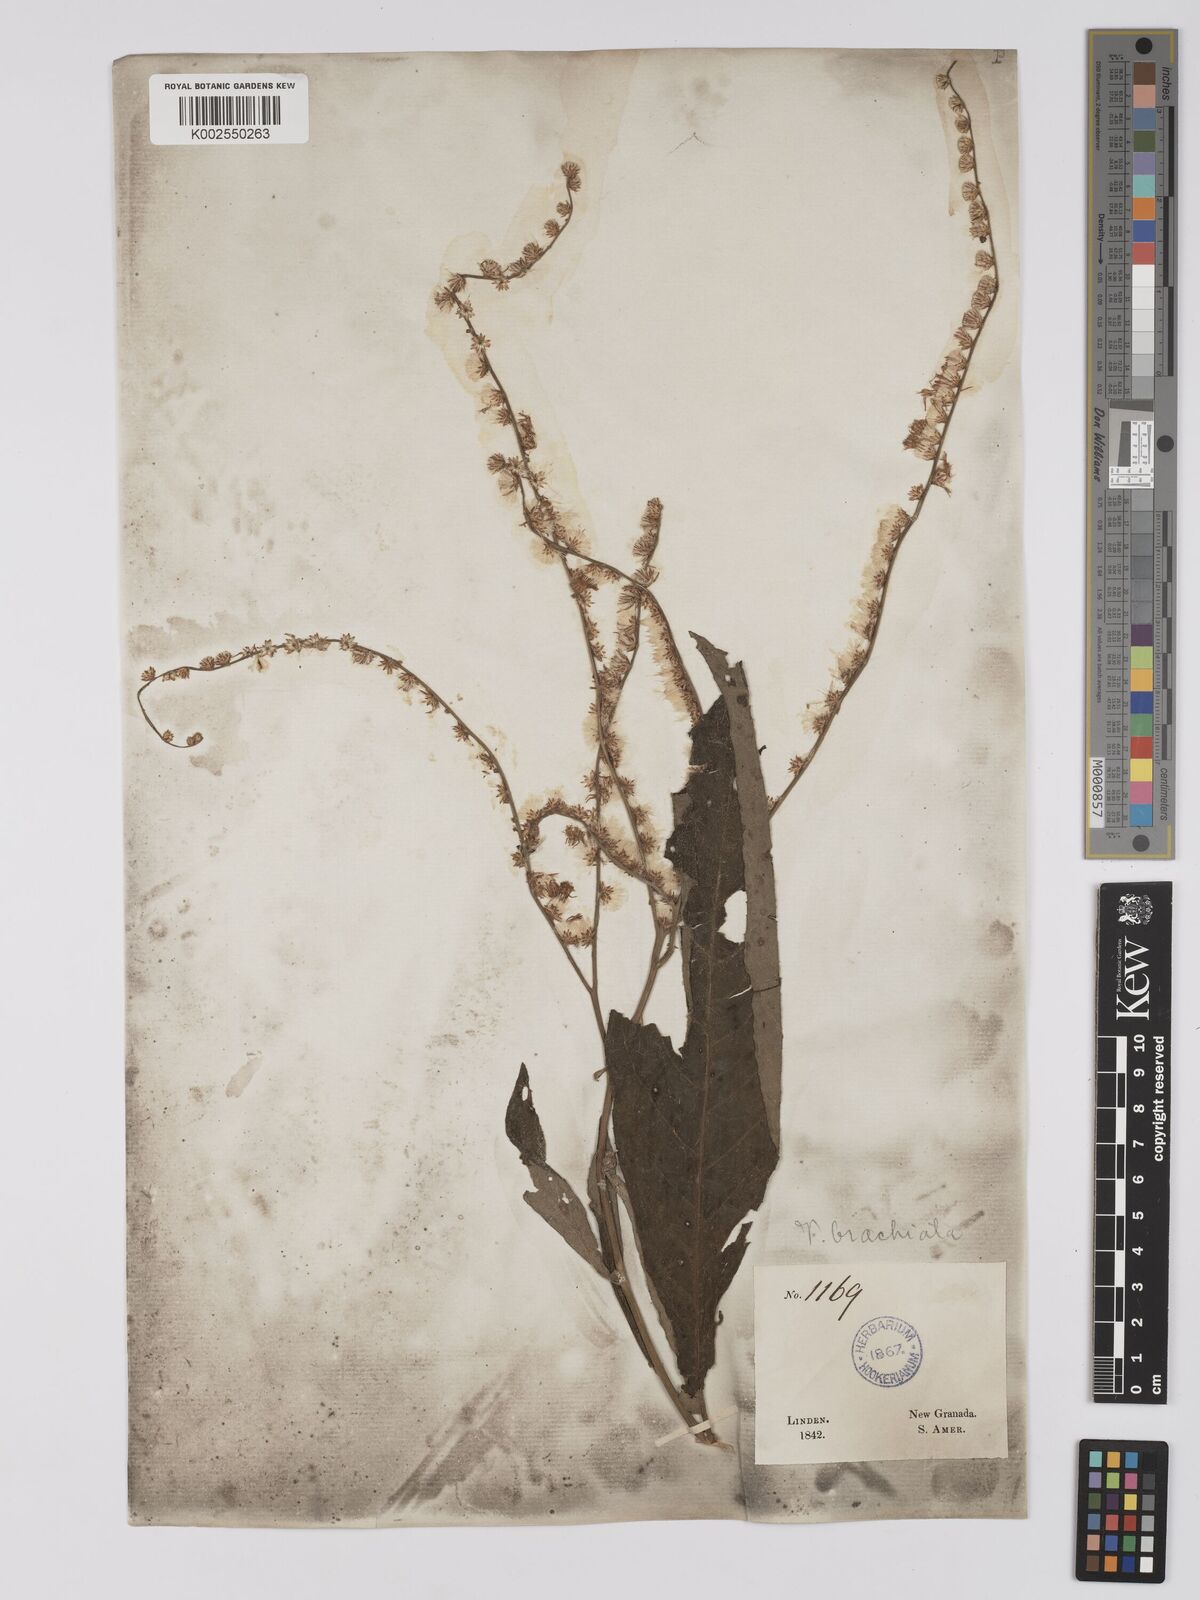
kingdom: Plantae
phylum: Tracheophyta
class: Magnoliopsida
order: Asterales
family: Asteraceae
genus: Eirmocephala
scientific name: Eirmocephala brachiata
